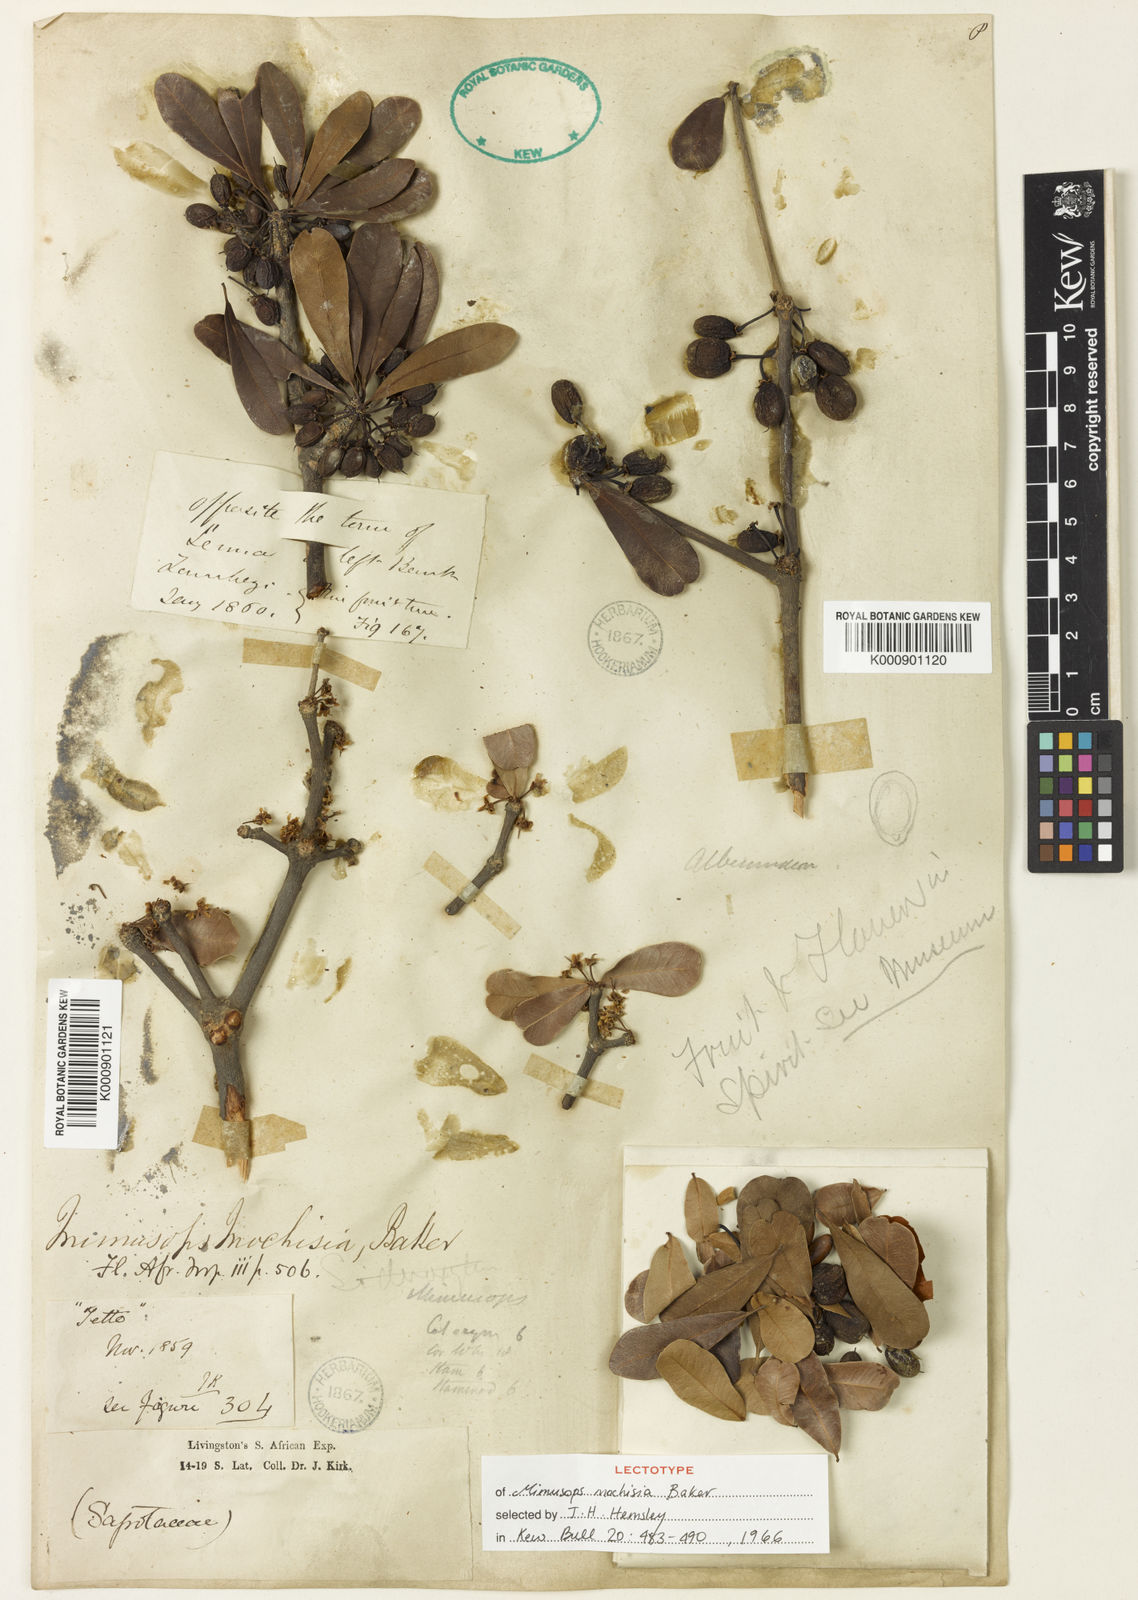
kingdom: Plantae
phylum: Tracheophyta
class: Magnoliopsida
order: Ericales
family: Sapotaceae
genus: Manilkara
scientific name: Manilkara mochisia
